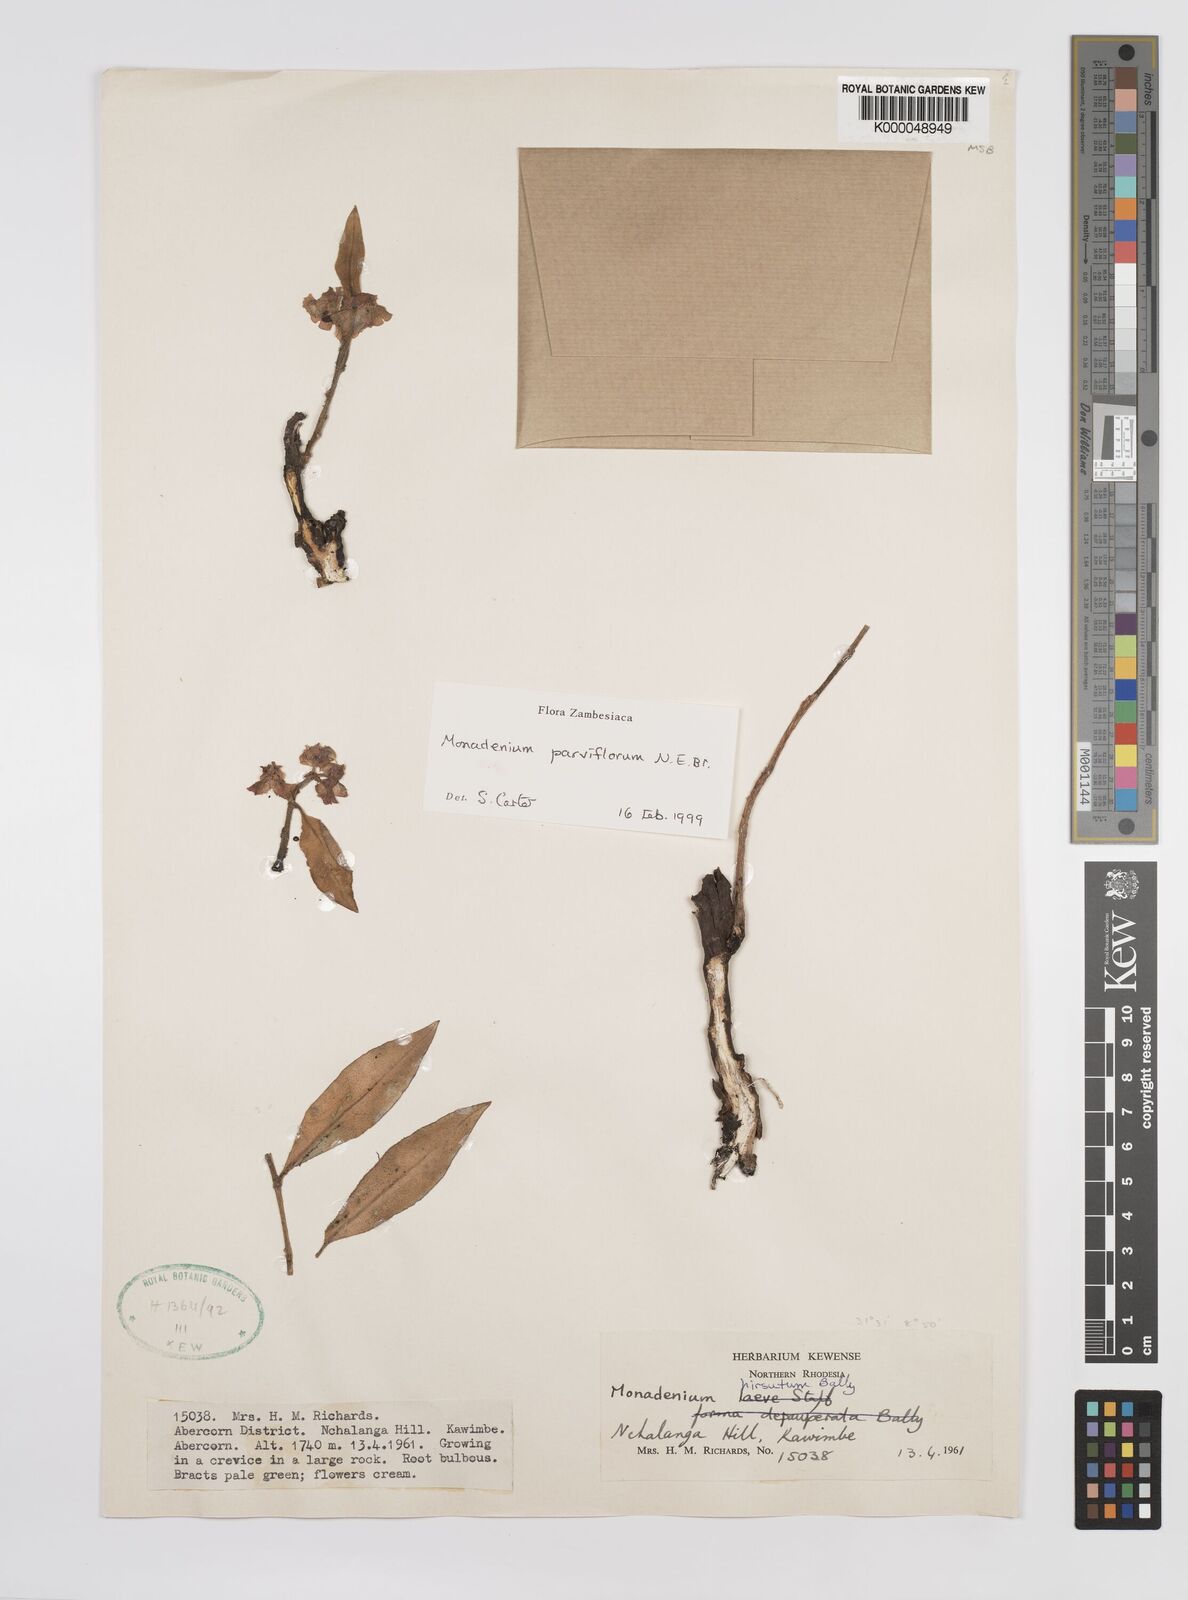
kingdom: Plantae
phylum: Tracheophyta
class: Magnoliopsida
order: Malpighiales
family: Euphorbiaceae
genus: Euphorbia
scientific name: Euphorbia neoparviflora
